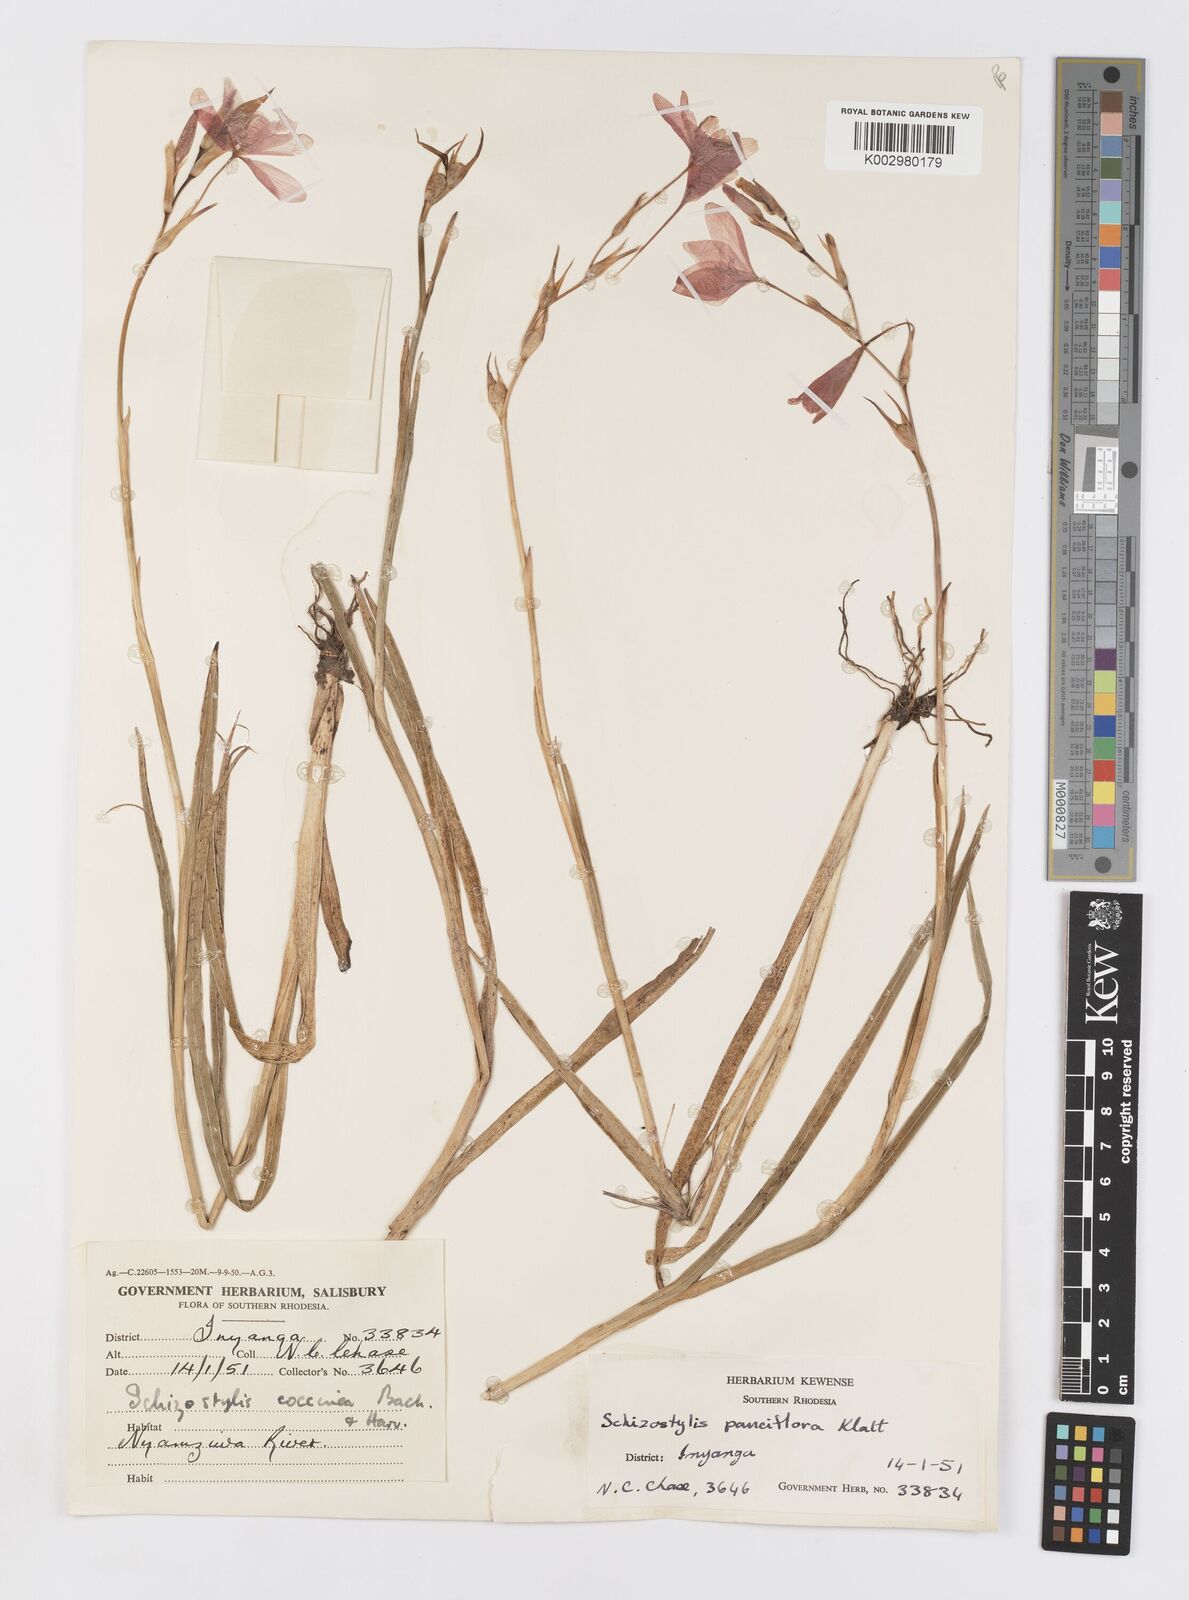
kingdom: Plantae
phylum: Tracheophyta
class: Liliopsida
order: Asparagales
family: Iridaceae
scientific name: Iridaceae
